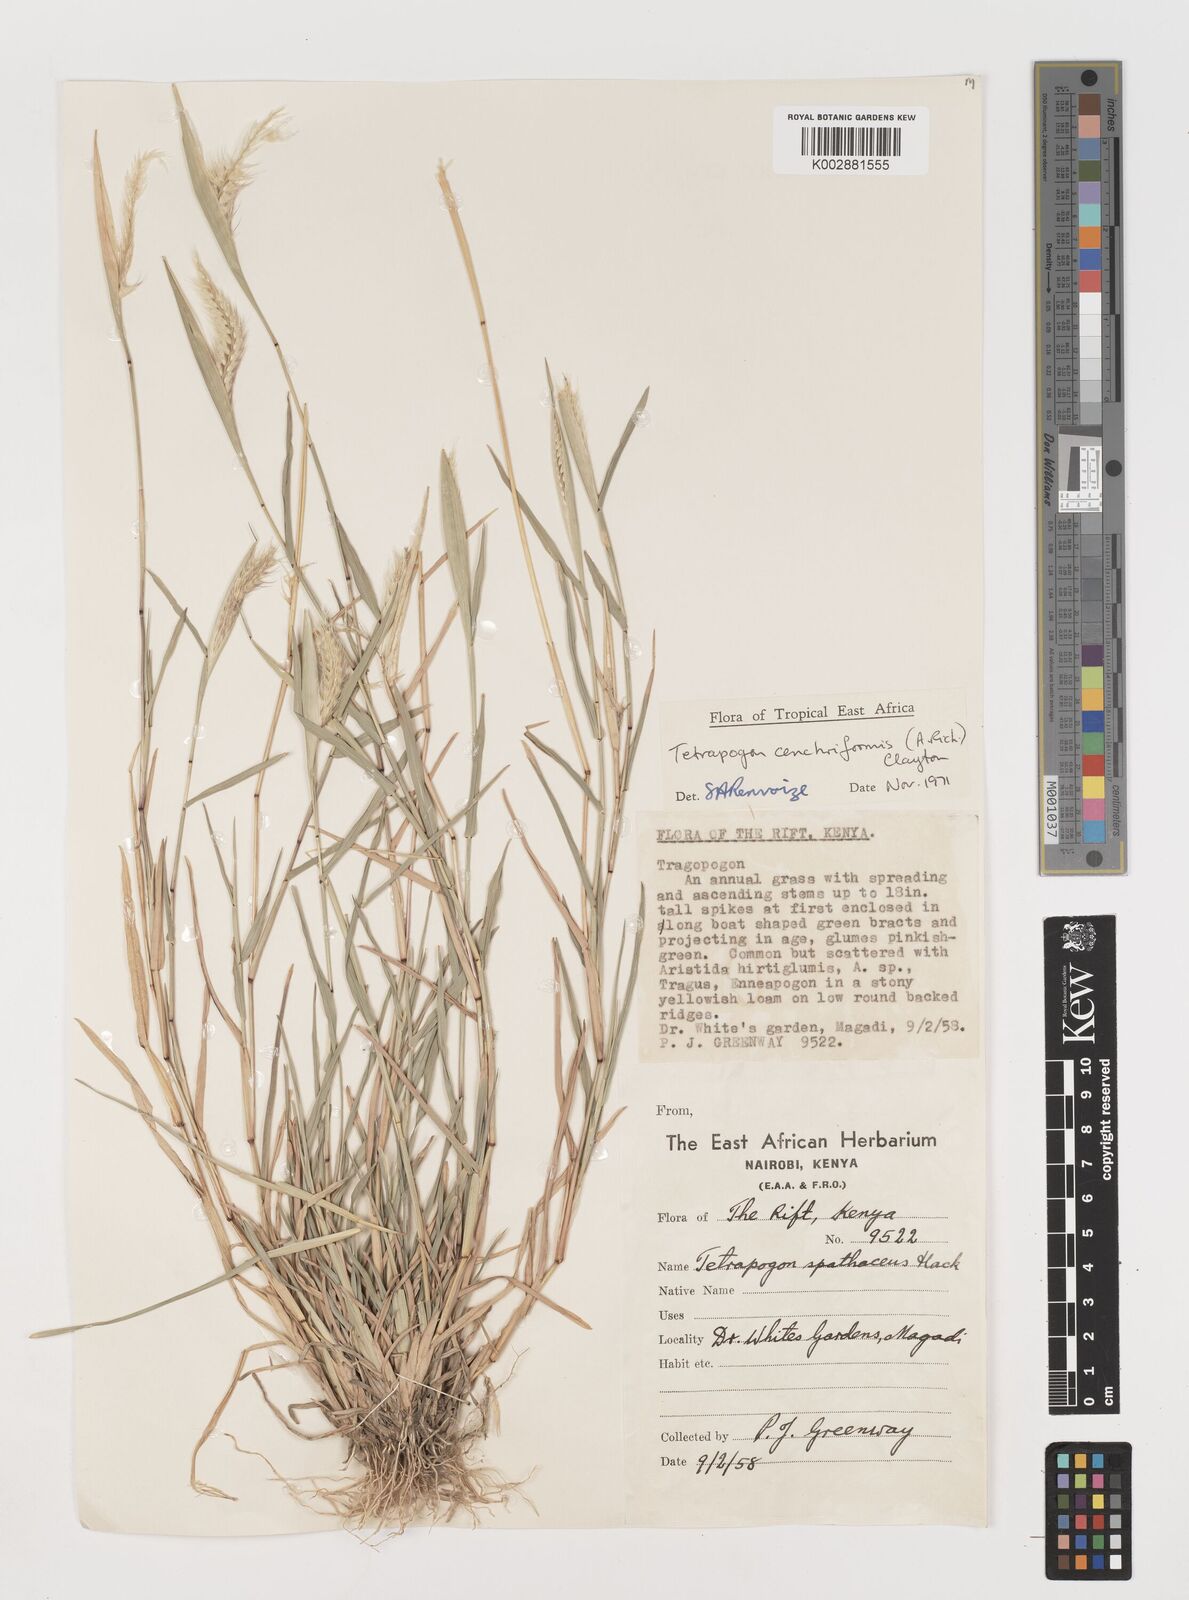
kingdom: Plantae
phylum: Tracheophyta
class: Liliopsida
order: Poales
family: Poaceae
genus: Tetrapogon
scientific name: Tetrapogon cenchriformis
